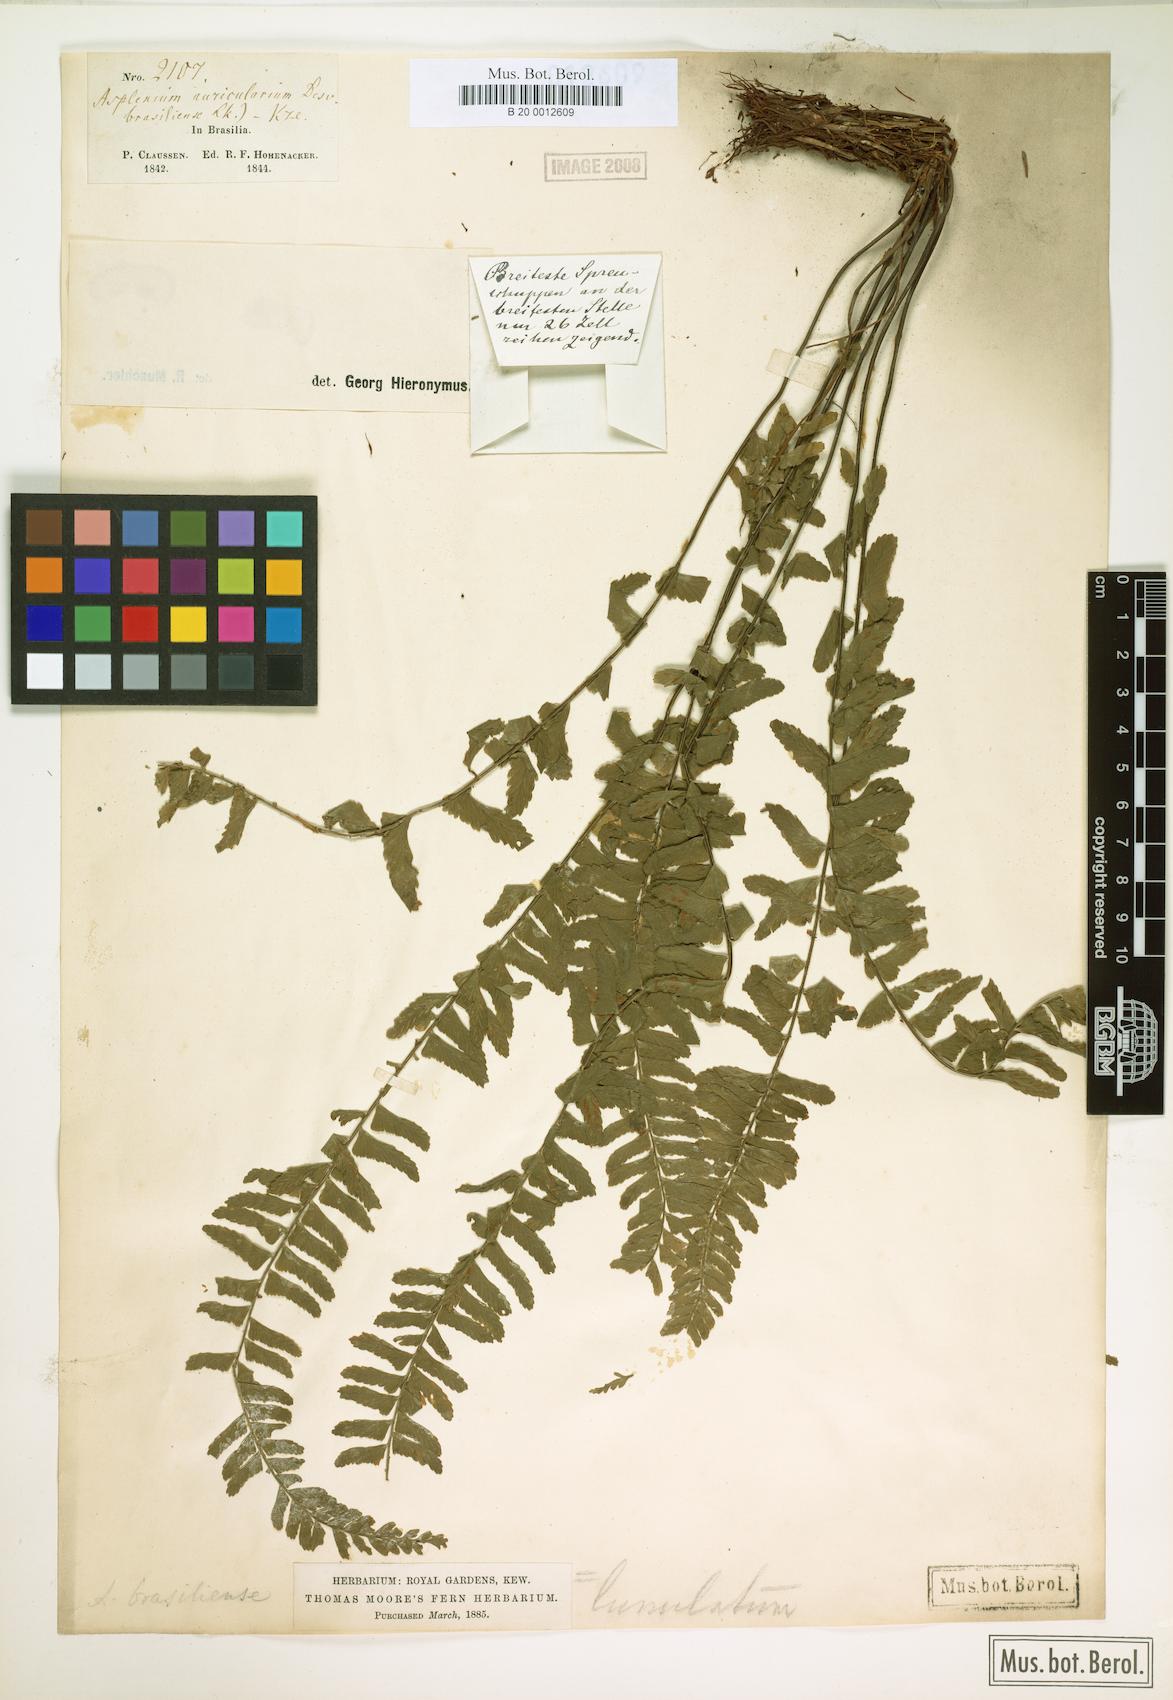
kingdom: Plantae
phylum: Tracheophyta
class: Polypodiopsida
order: Polypodiales
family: Aspleniaceae
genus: Asplenium
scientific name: Asplenium claussenii
